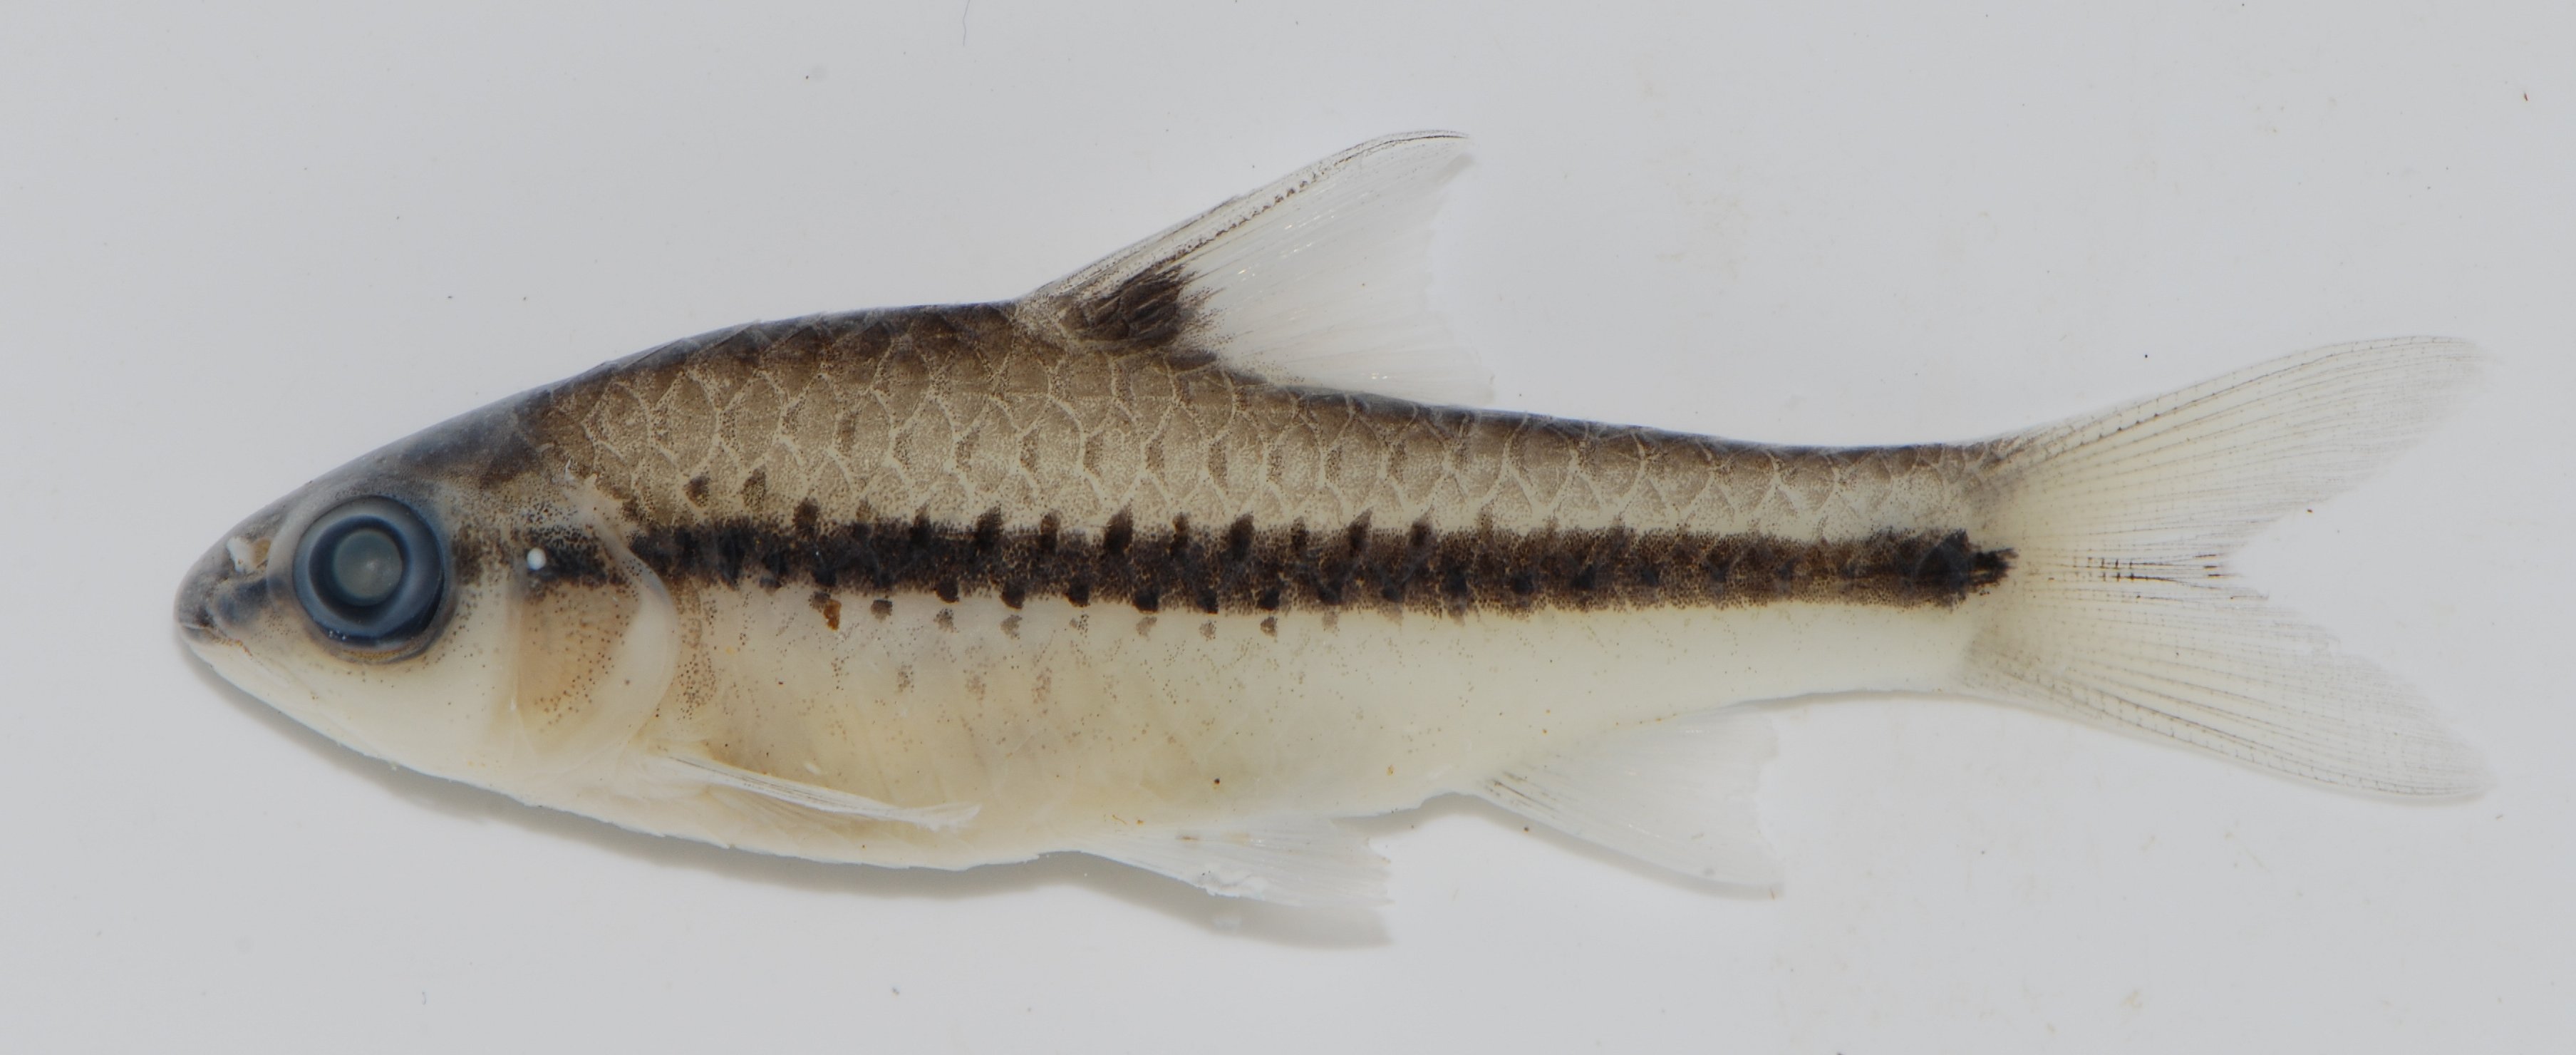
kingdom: Animalia
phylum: Chordata
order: Cypriniformes
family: Cyprinidae
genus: Enteromius
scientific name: Enteromius miolepis
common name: Zigzag barb
